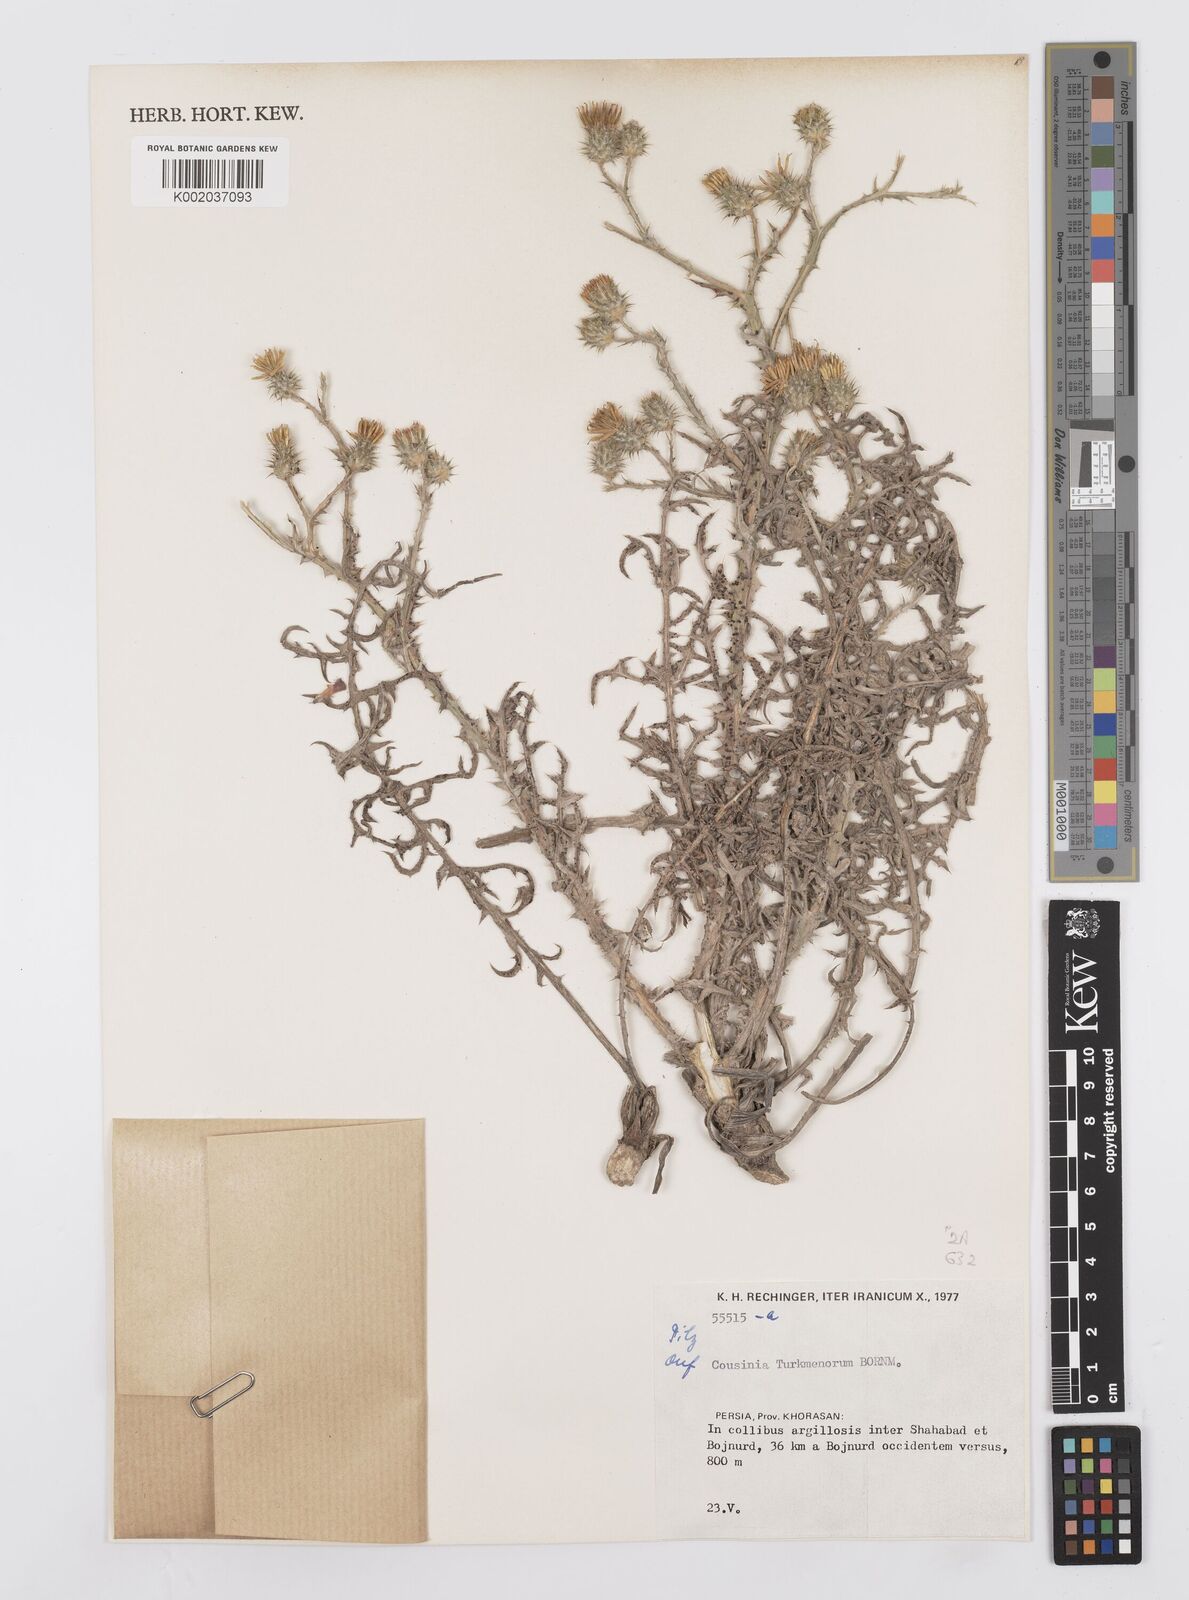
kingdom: Plantae
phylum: Tracheophyta
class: Magnoliopsida
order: Asterales
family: Asteraceae
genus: Cousinia
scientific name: Cousinia turkmenorum
